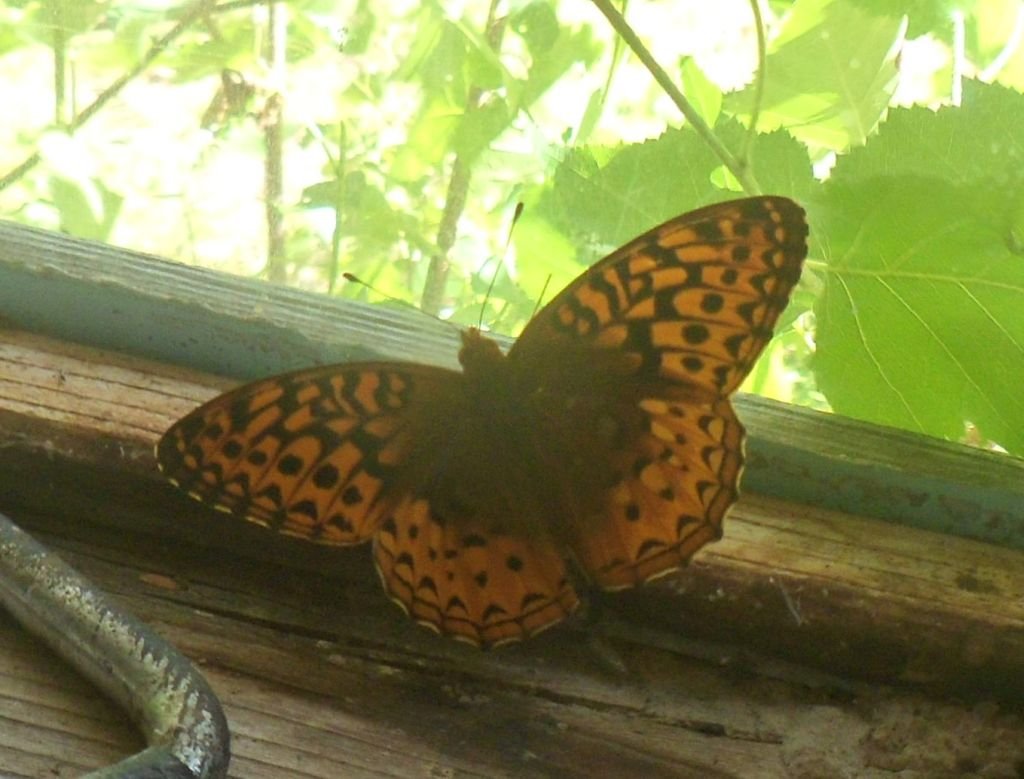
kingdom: Animalia
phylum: Arthropoda
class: Insecta
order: Lepidoptera
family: Nymphalidae
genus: Speyeria
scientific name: Speyeria cybele
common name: Great Spangled Fritillary
